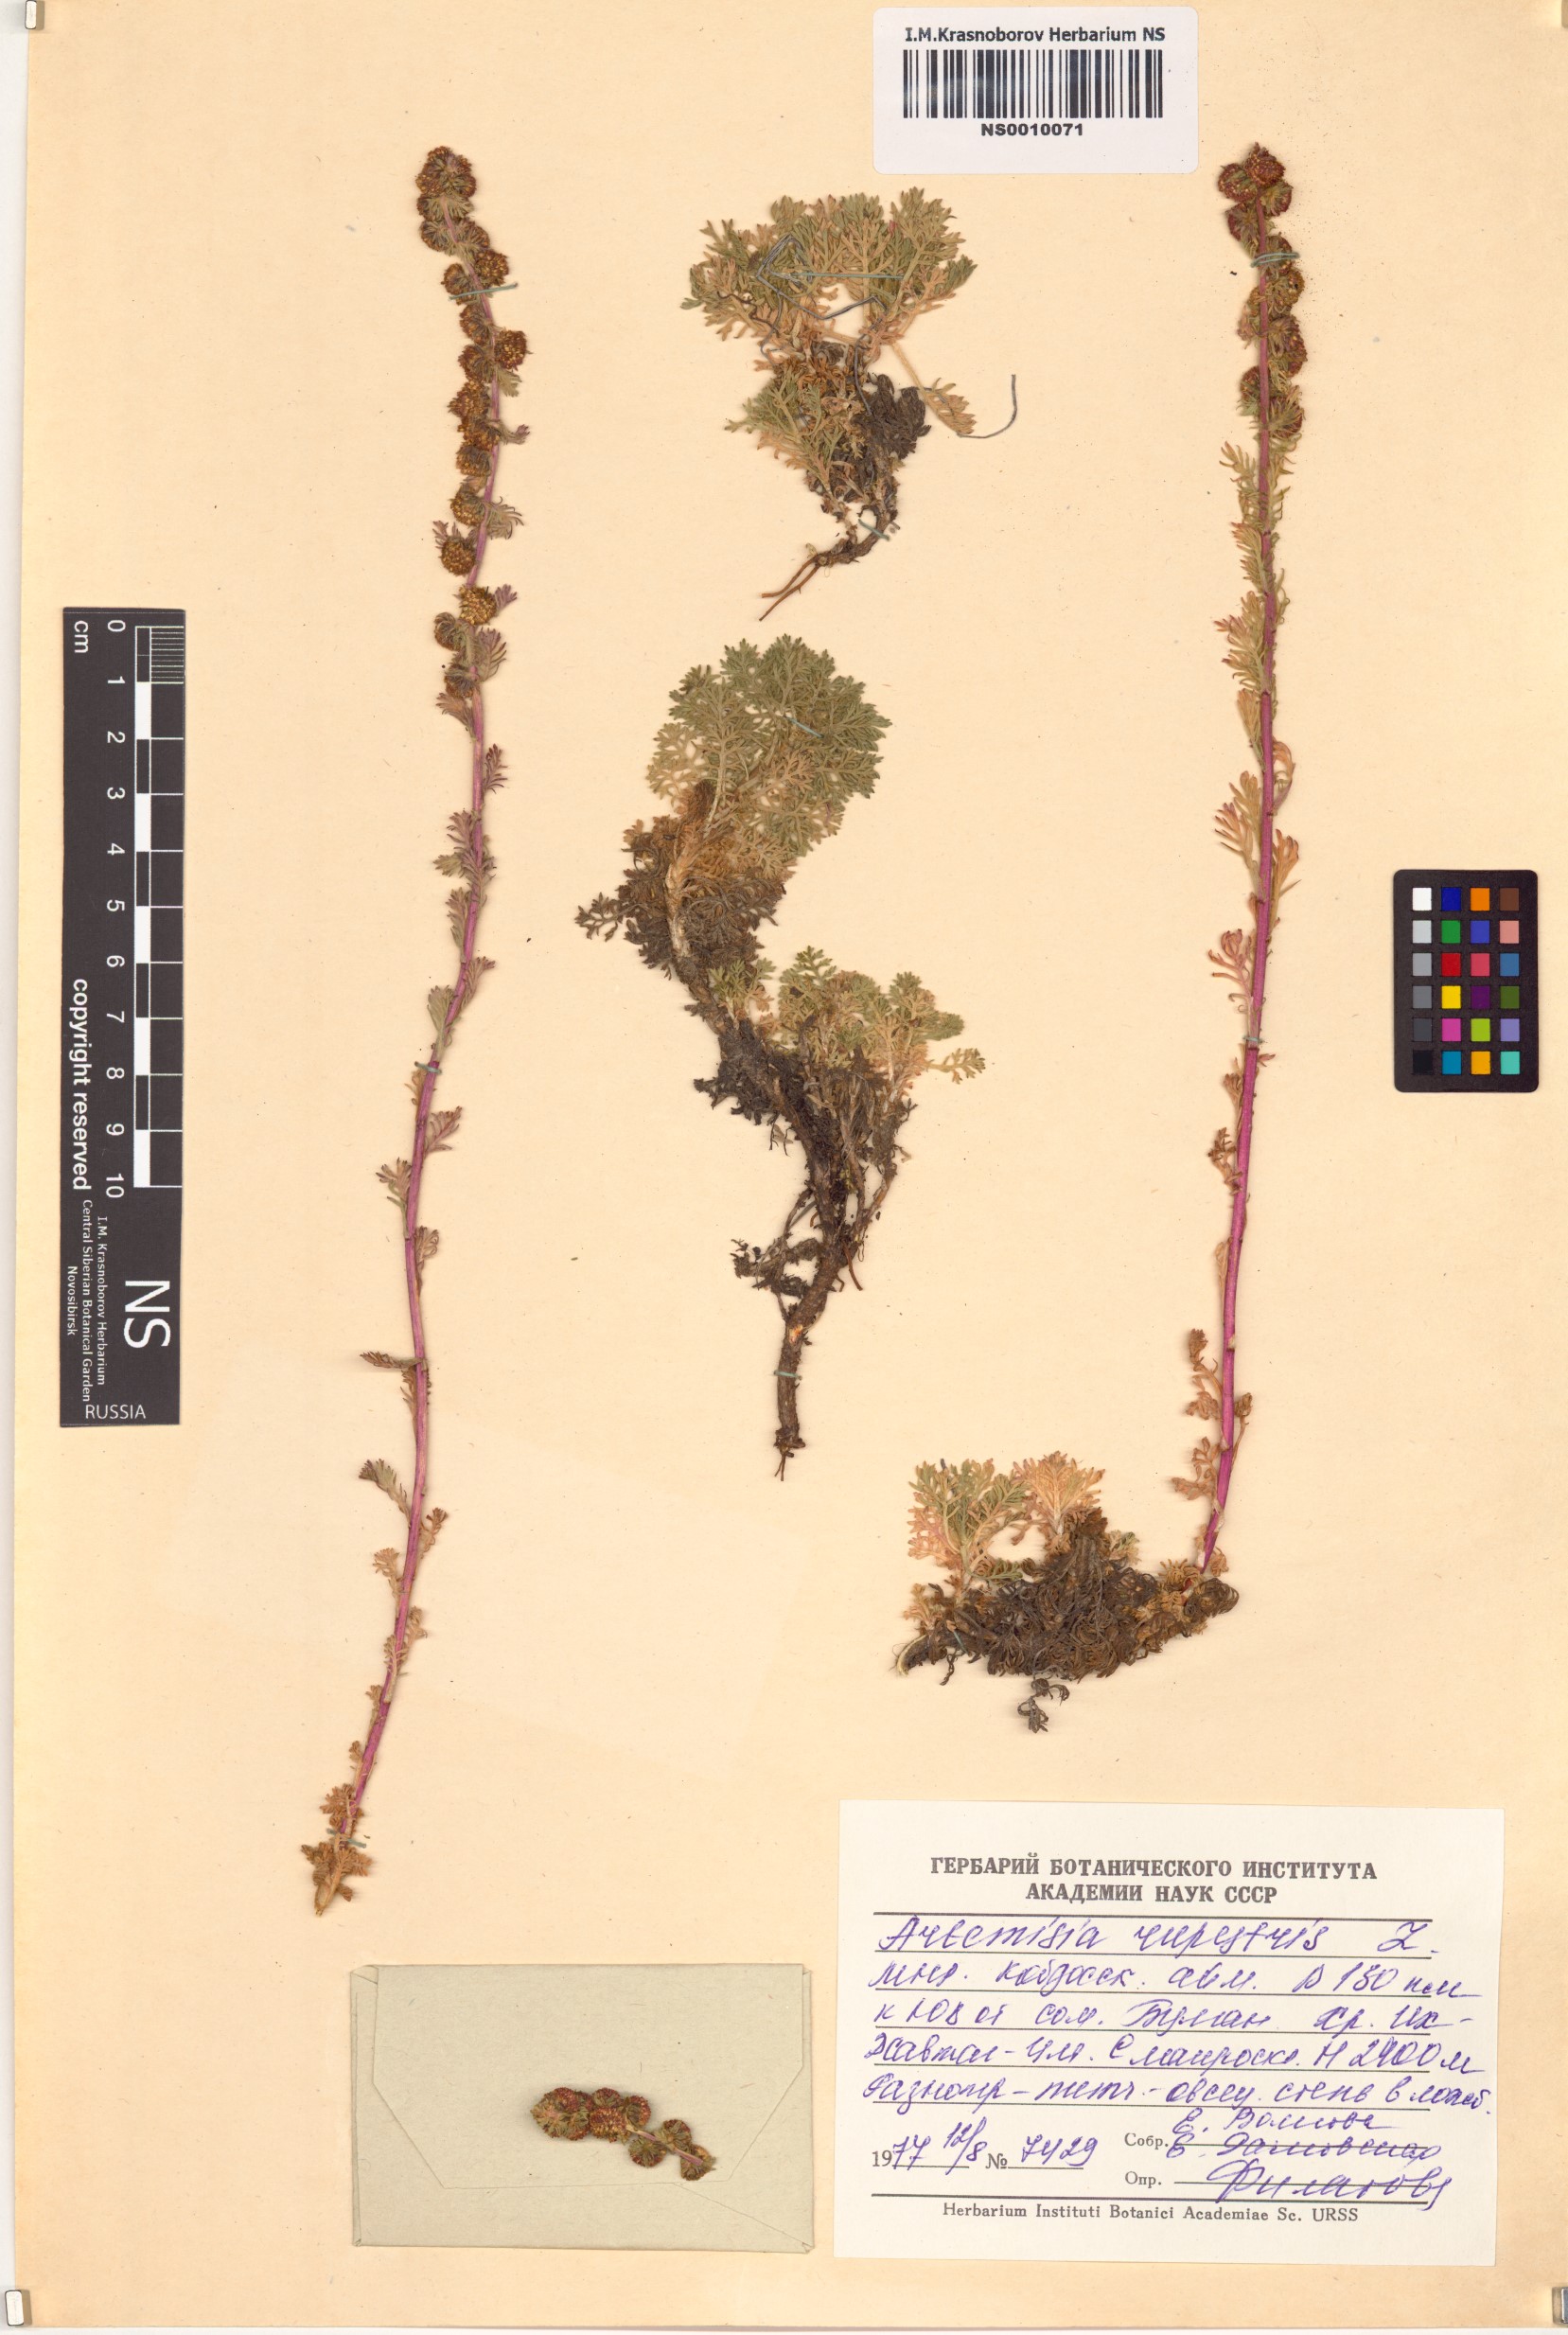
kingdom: Plantae
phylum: Tracheophyta
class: Magnoliopsida
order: Asterales
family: Asteraceae
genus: Artemisia
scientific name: Artemisia rupestris
